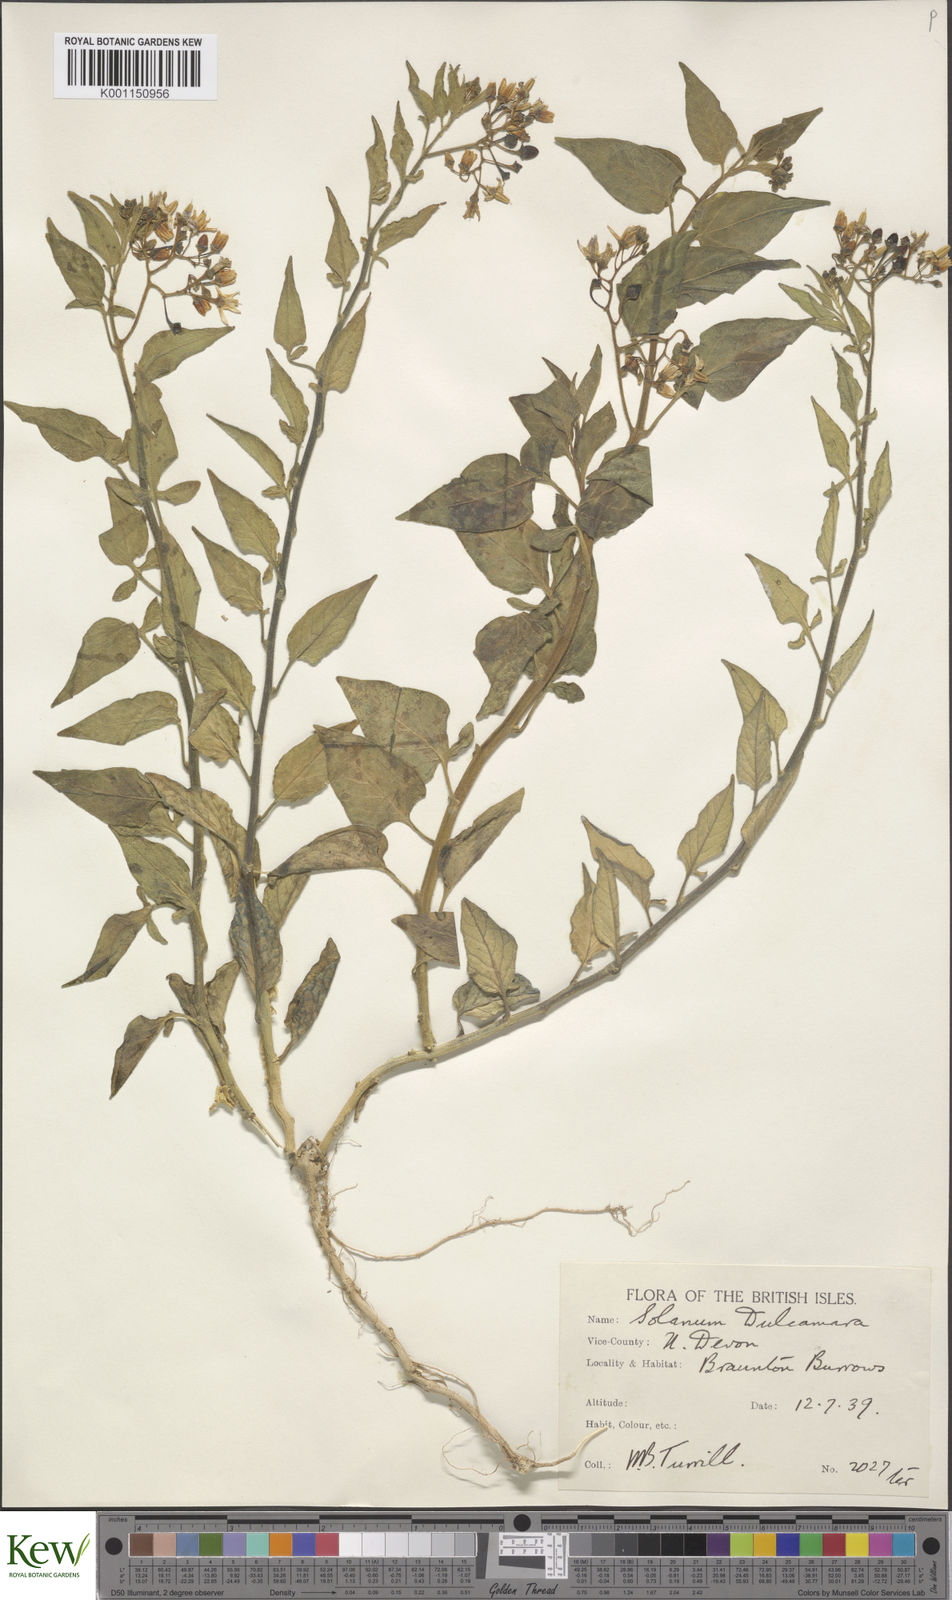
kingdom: Plantae
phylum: Tracheophyta
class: Magnoliopsida
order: Solanales
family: Solanaceae
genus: Solanum
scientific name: Solanum dulcamara
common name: Climbing nightshade
